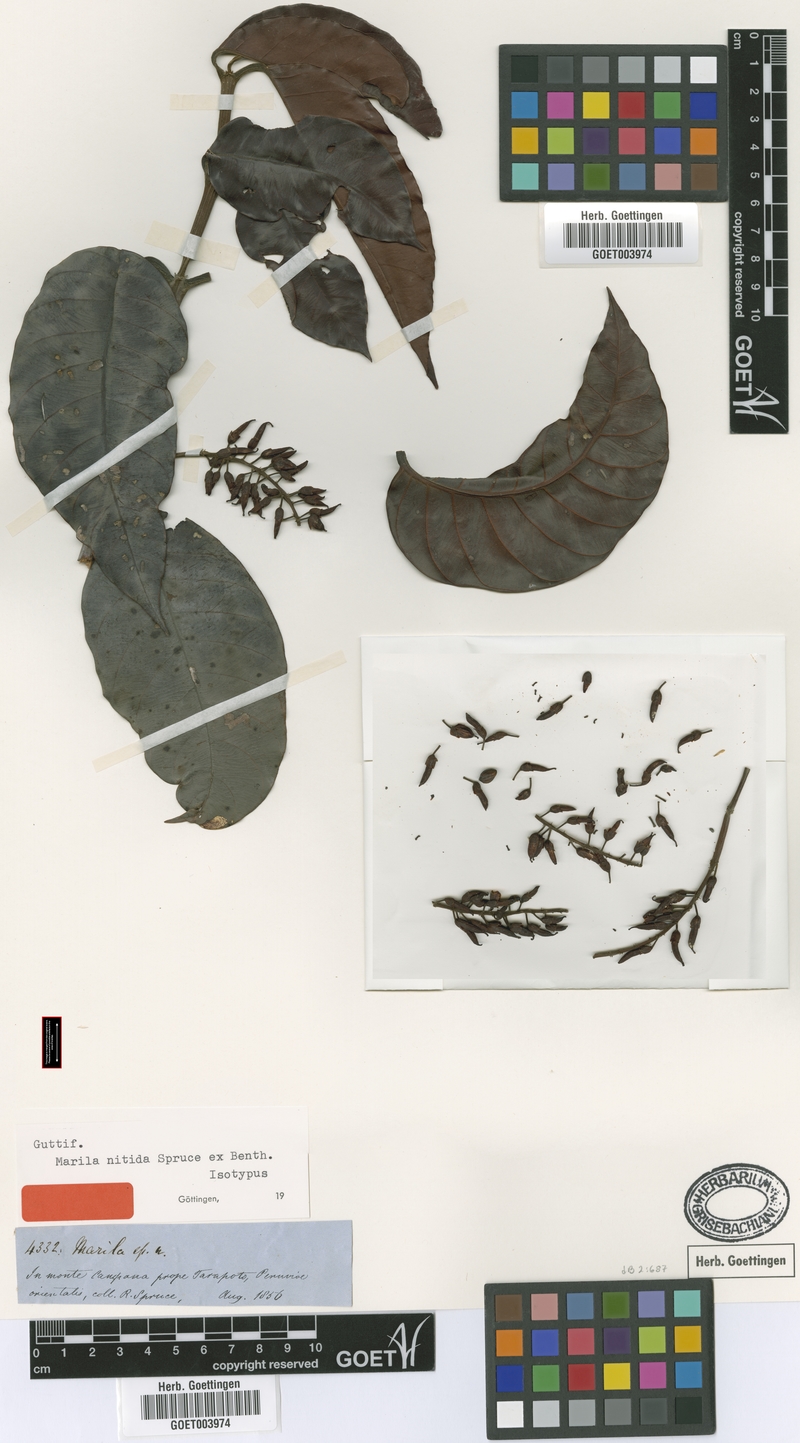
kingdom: Plantae
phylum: Tracheophyta
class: Magnoliopsida
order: Malpighiales
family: Calophyllaceae
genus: Marila
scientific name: Marila nitida
